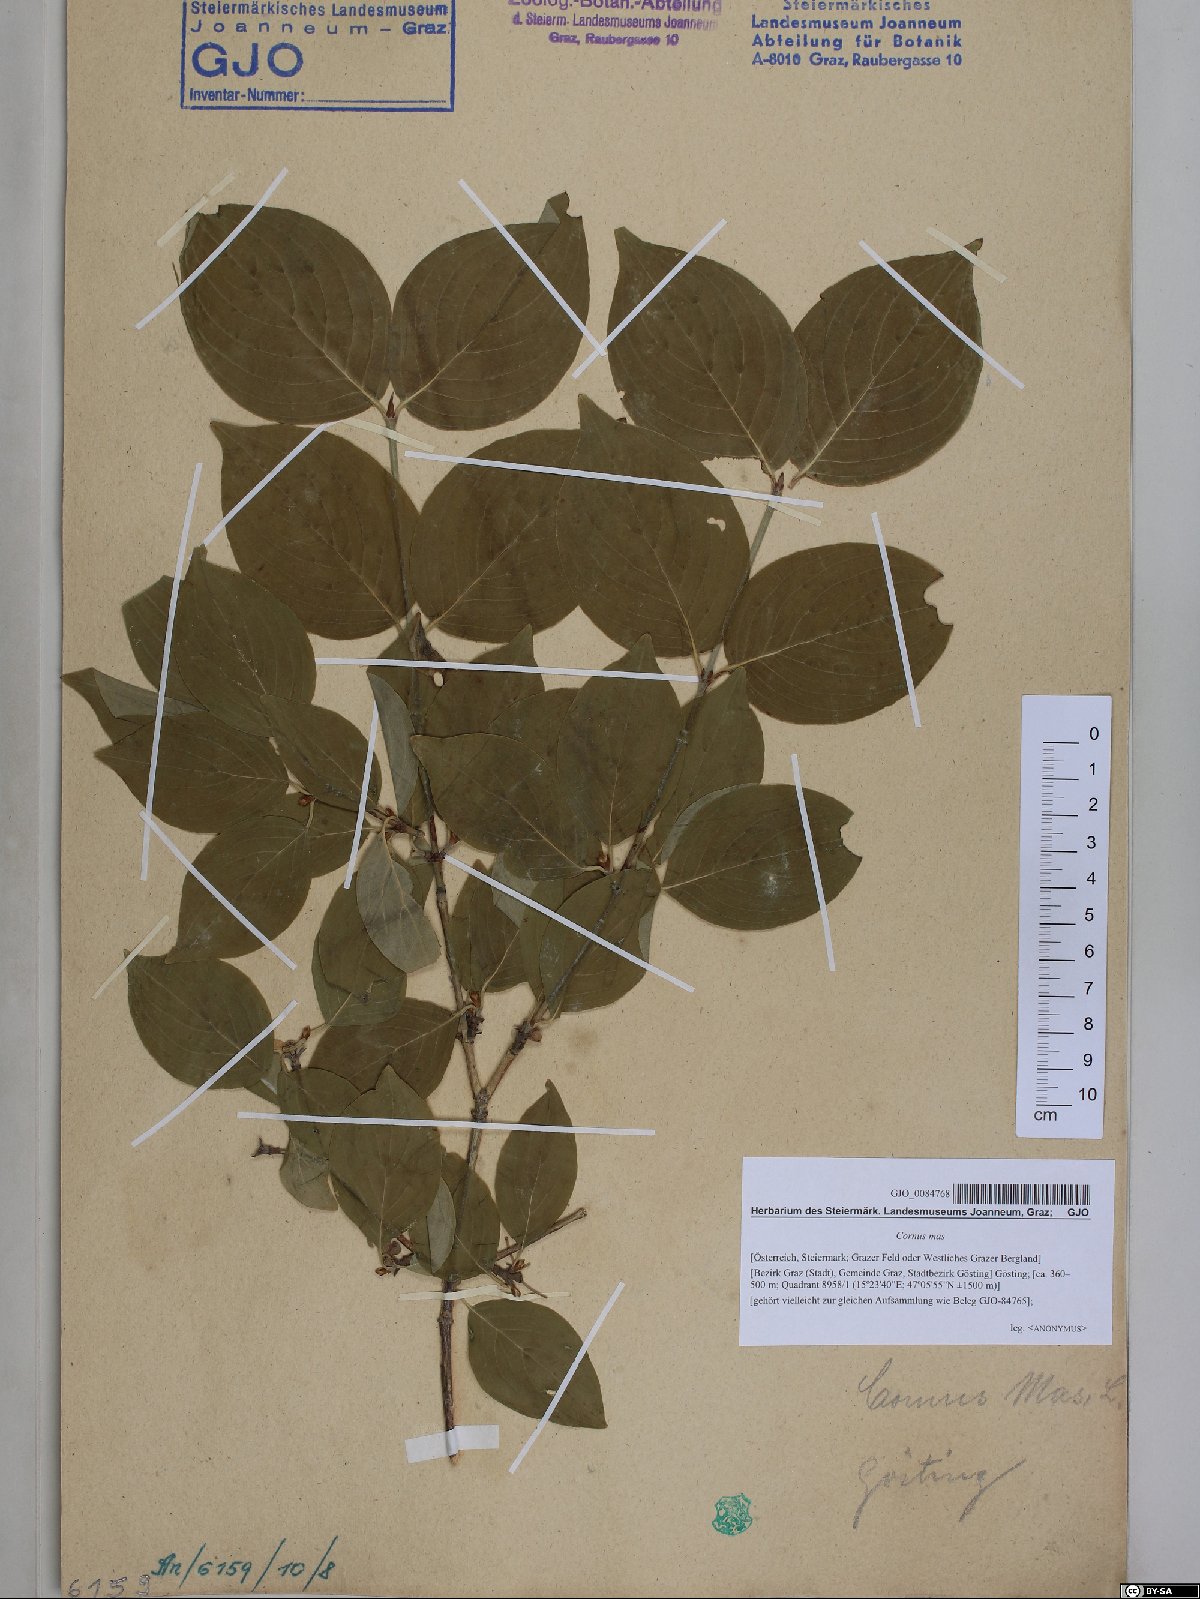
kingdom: Plantae
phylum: Tracheophyta
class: Magnoliopsida
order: Cornales
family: Cornaceae
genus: Cornus
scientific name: Cornus mas
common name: Cornelian-cherry
